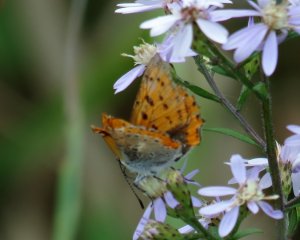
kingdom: Animalia
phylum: Arthropoda
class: Insecta
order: Lepidoptera
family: Sesiidae
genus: Sesia
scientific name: Sesia Lycaena hyllus
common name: Bronze Copper
